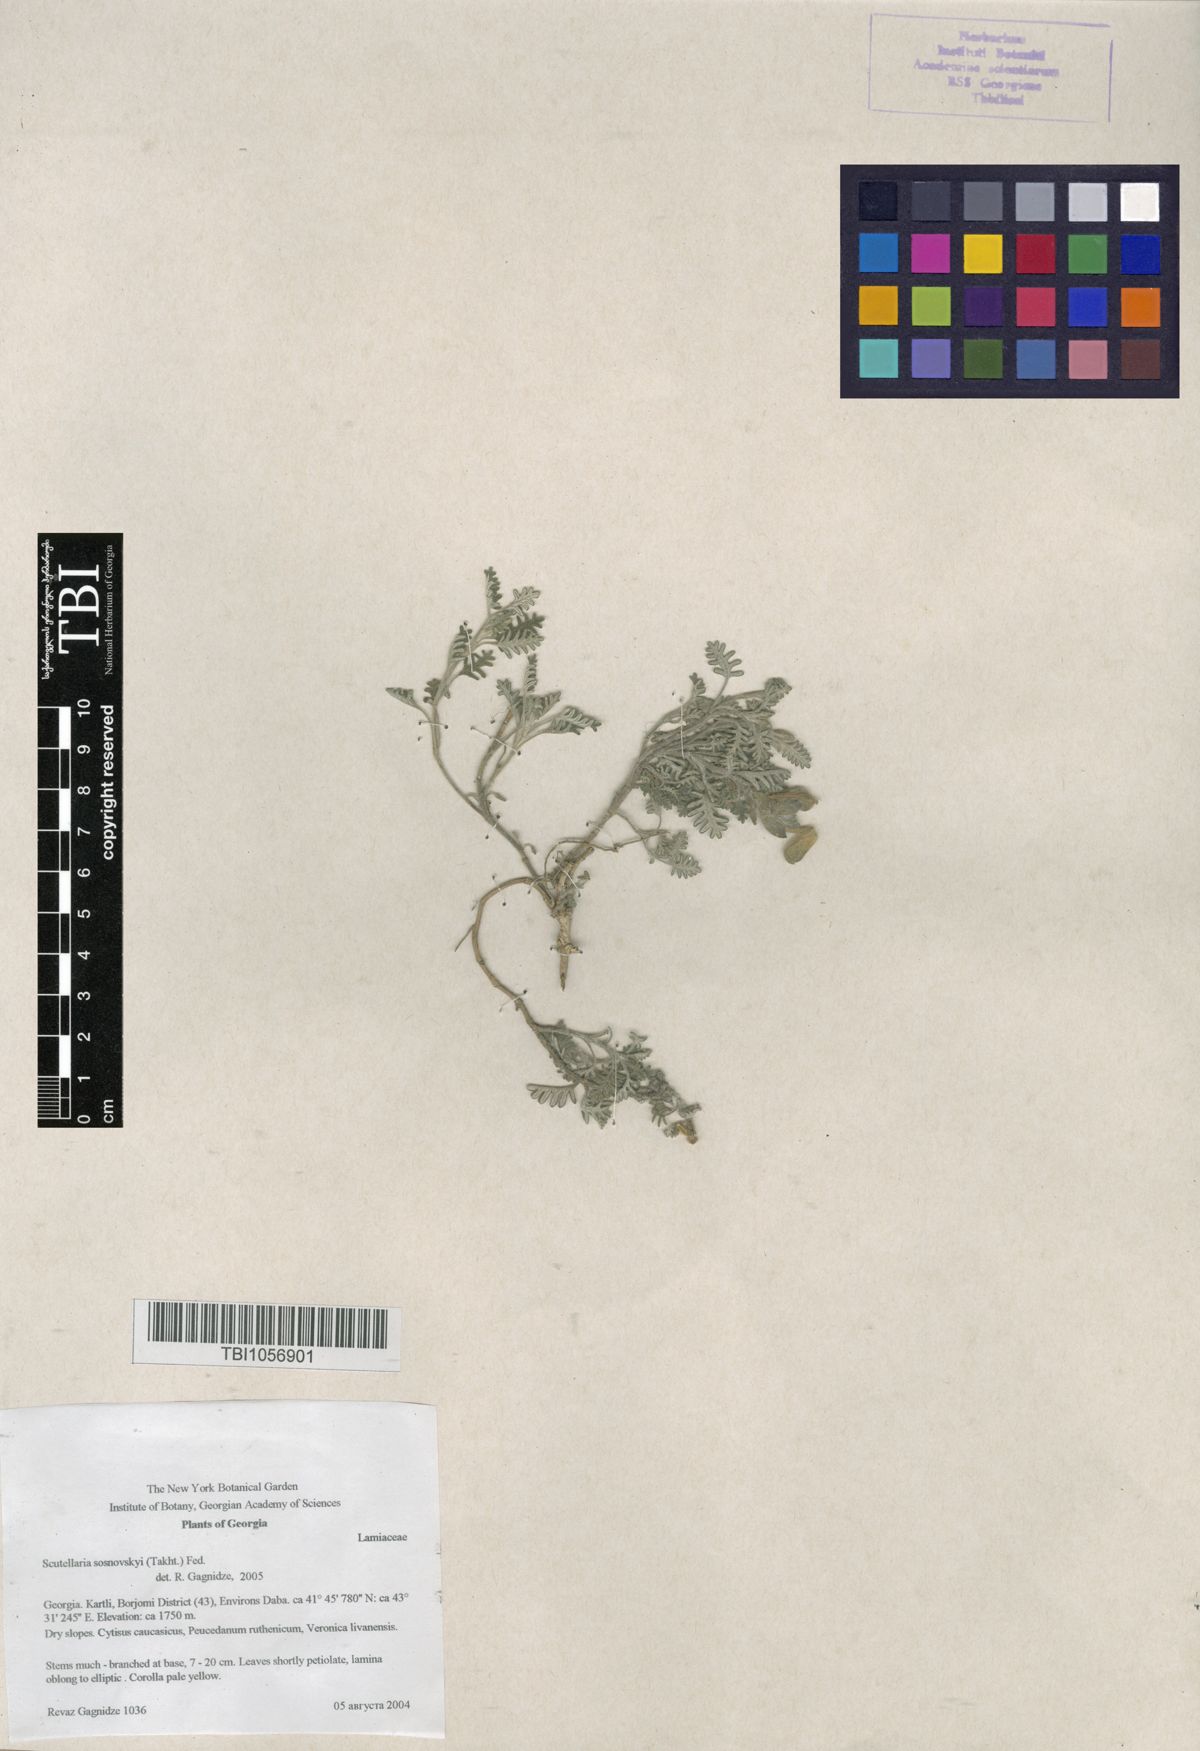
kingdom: Plantae
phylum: Tracheophyta
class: Magnoliopsida
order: Lamiales
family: Lamiaceae
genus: Scutellaria
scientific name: Scutellaria sosnowskyi
